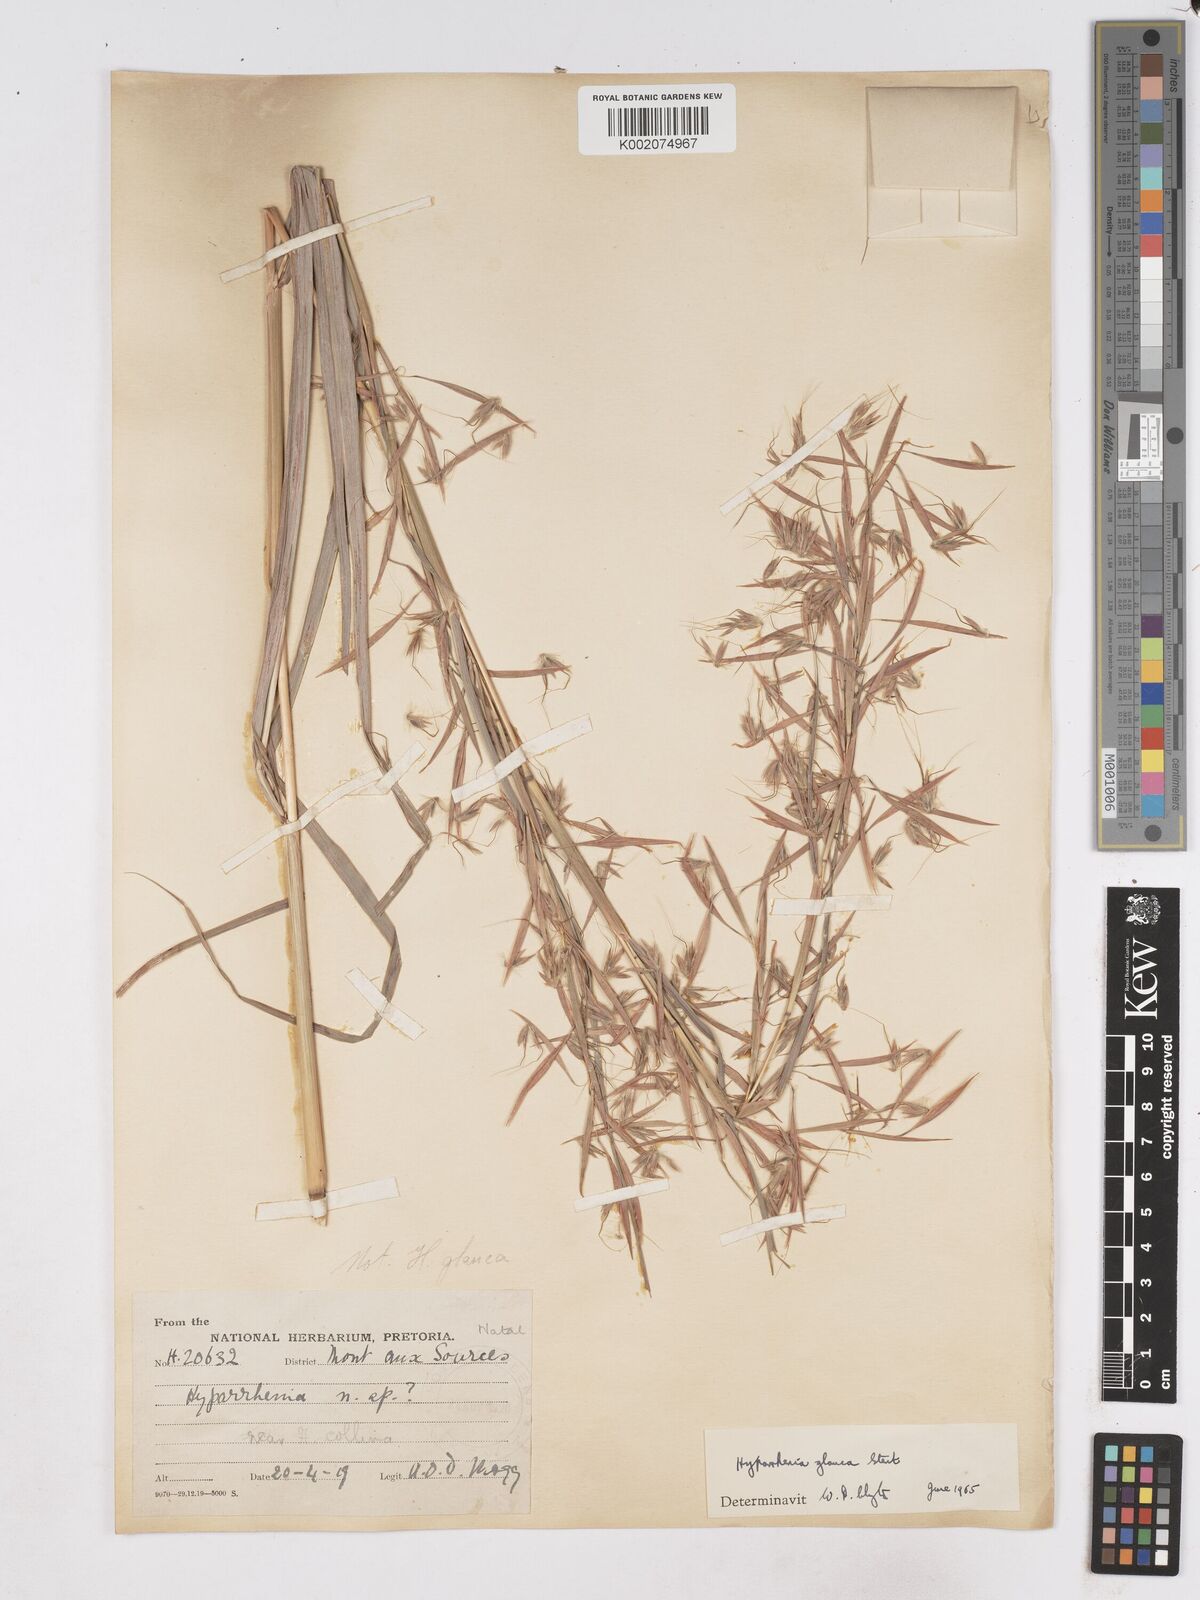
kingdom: Plantae
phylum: Tracheophyta
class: Liliopsida
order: Poales
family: Poaceae
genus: Hyparrhenia
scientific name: Hyparrhenia tamba
